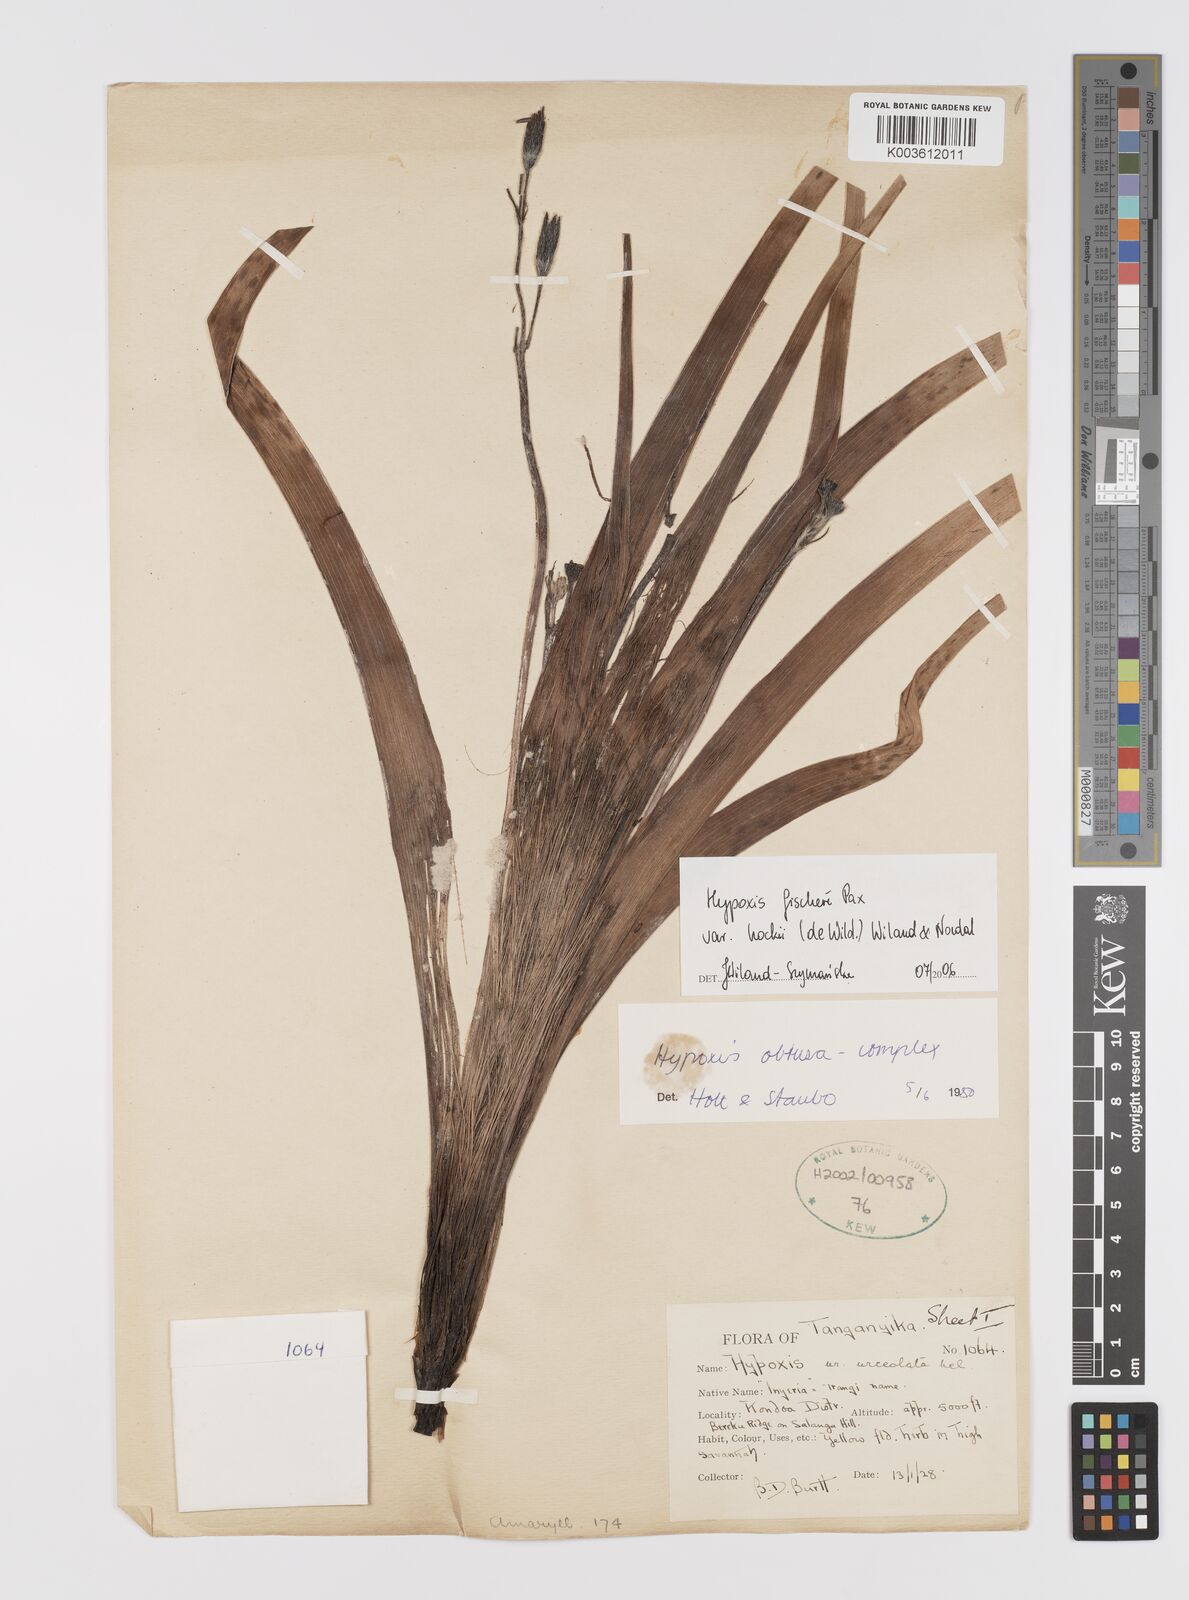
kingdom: Plantae
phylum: Tracheophyta
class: Liliopsida
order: Asparagales
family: Hypoxidaceae
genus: Hypoxis
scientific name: Hypoxis fischeri
